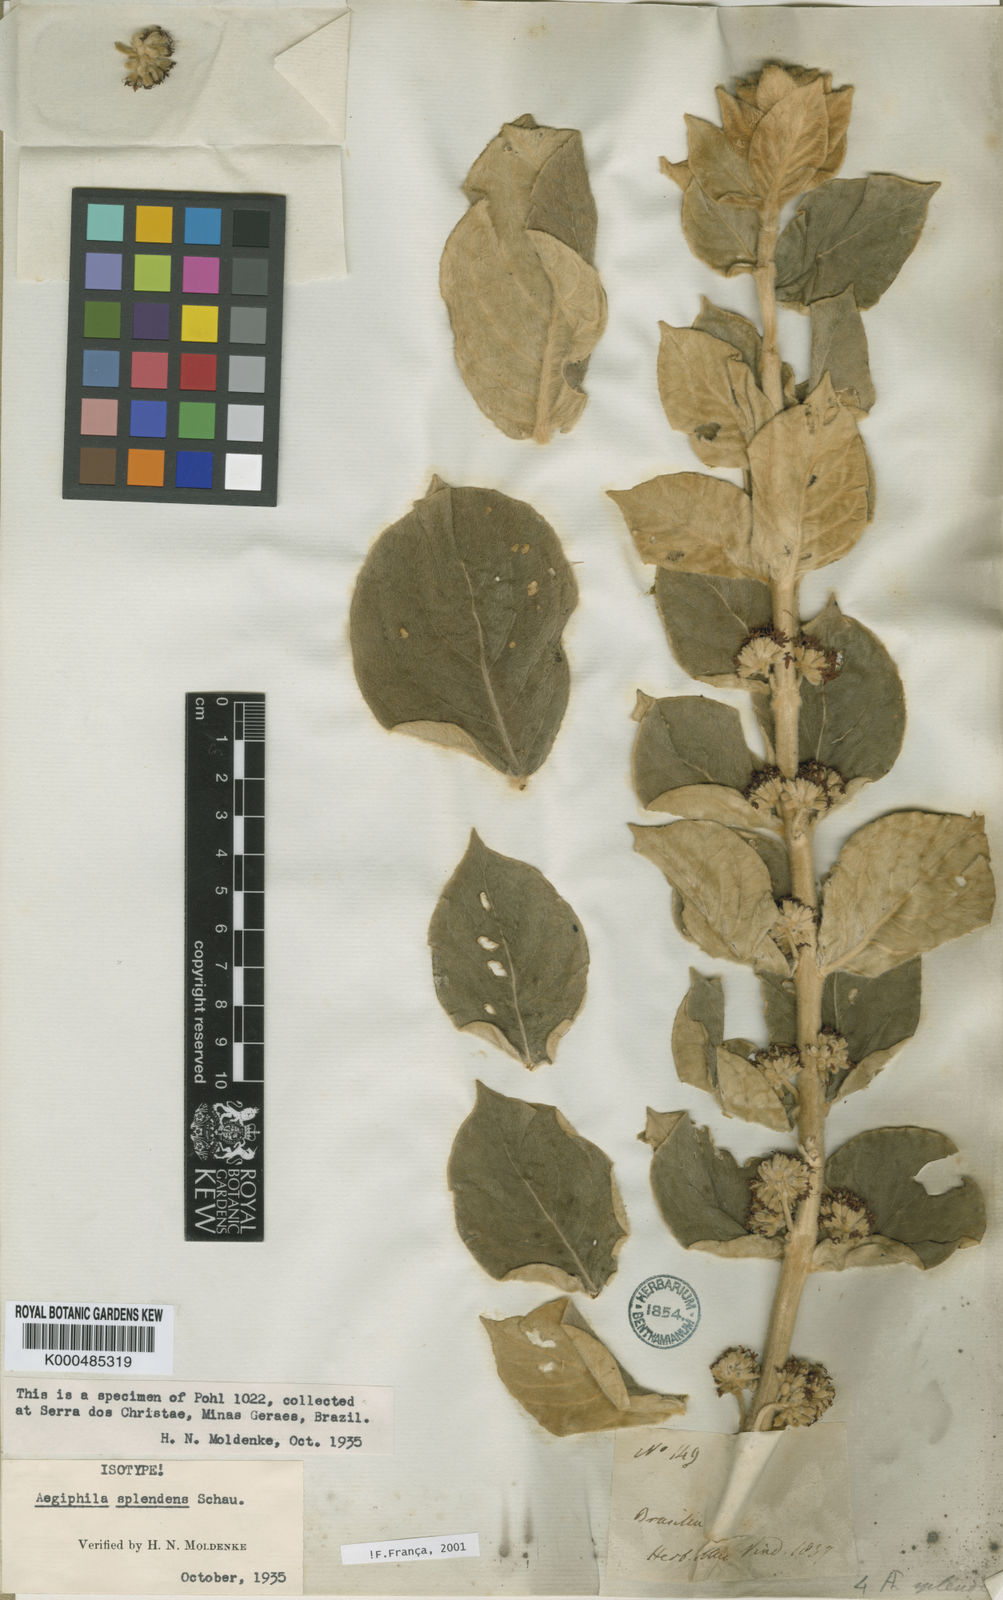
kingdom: Plantae
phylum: Tracheophyta
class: Magnoliopsida
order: Lamiales
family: Lamiaceae
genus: Aegiphila
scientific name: Aegiphila verticillata
